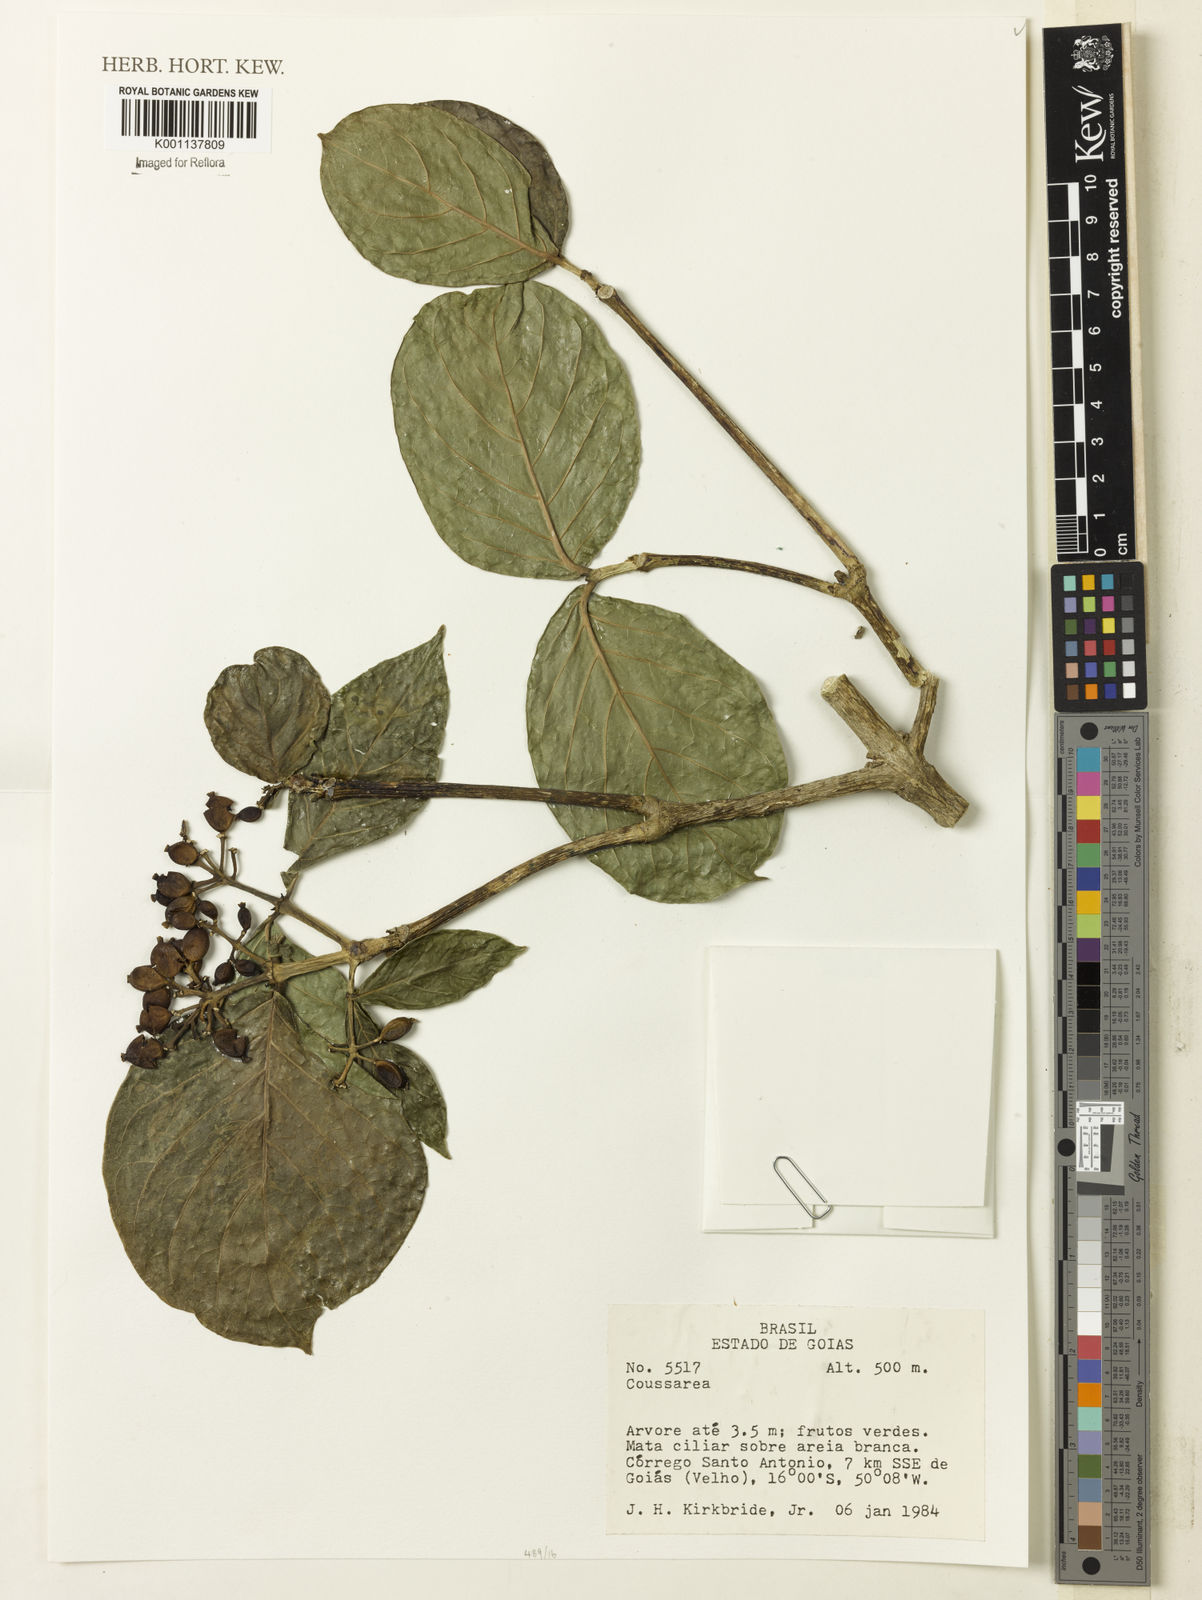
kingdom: Plantae
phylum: Tracheophyta
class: Magnoliopsida
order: Gentianales
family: Rubiaceae
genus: Coussarea
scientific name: Coussarea
